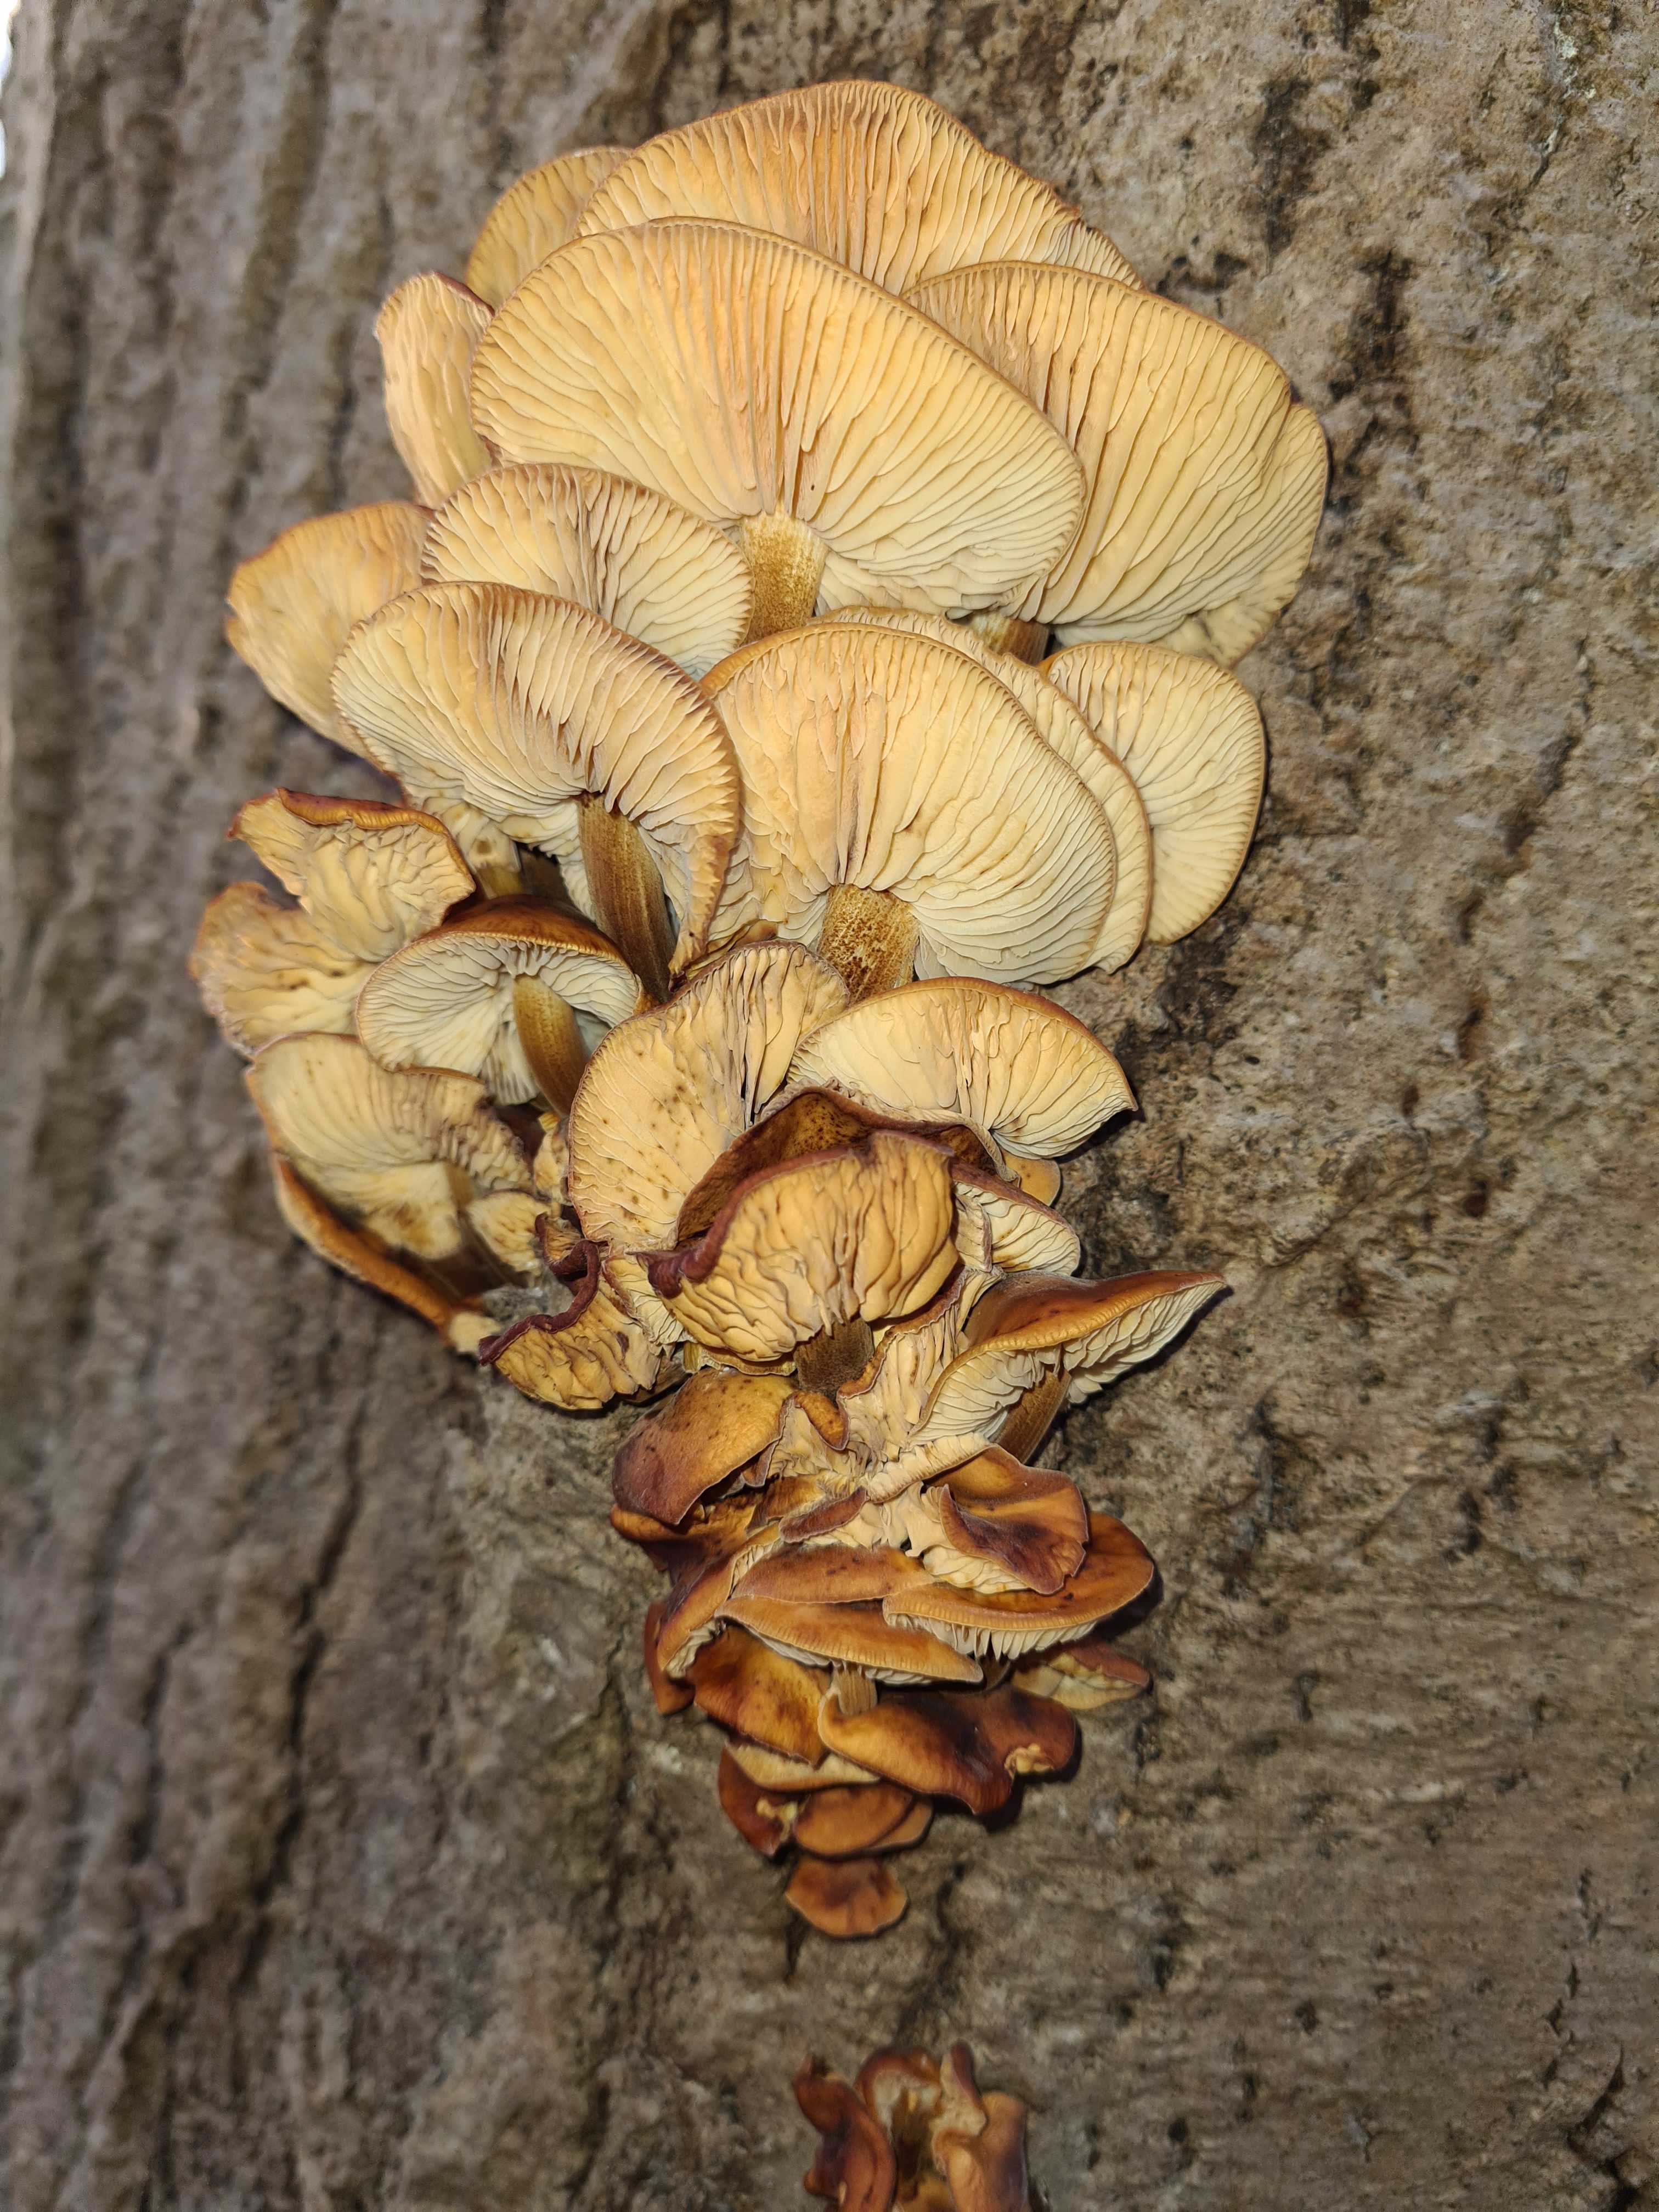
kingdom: Fungi
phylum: Basidiomycota
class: Agaricomycetes
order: Agaricales
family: Physalacriaceae
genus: Flammulina
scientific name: Flammulina velutipes
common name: gul fløjlsfod
